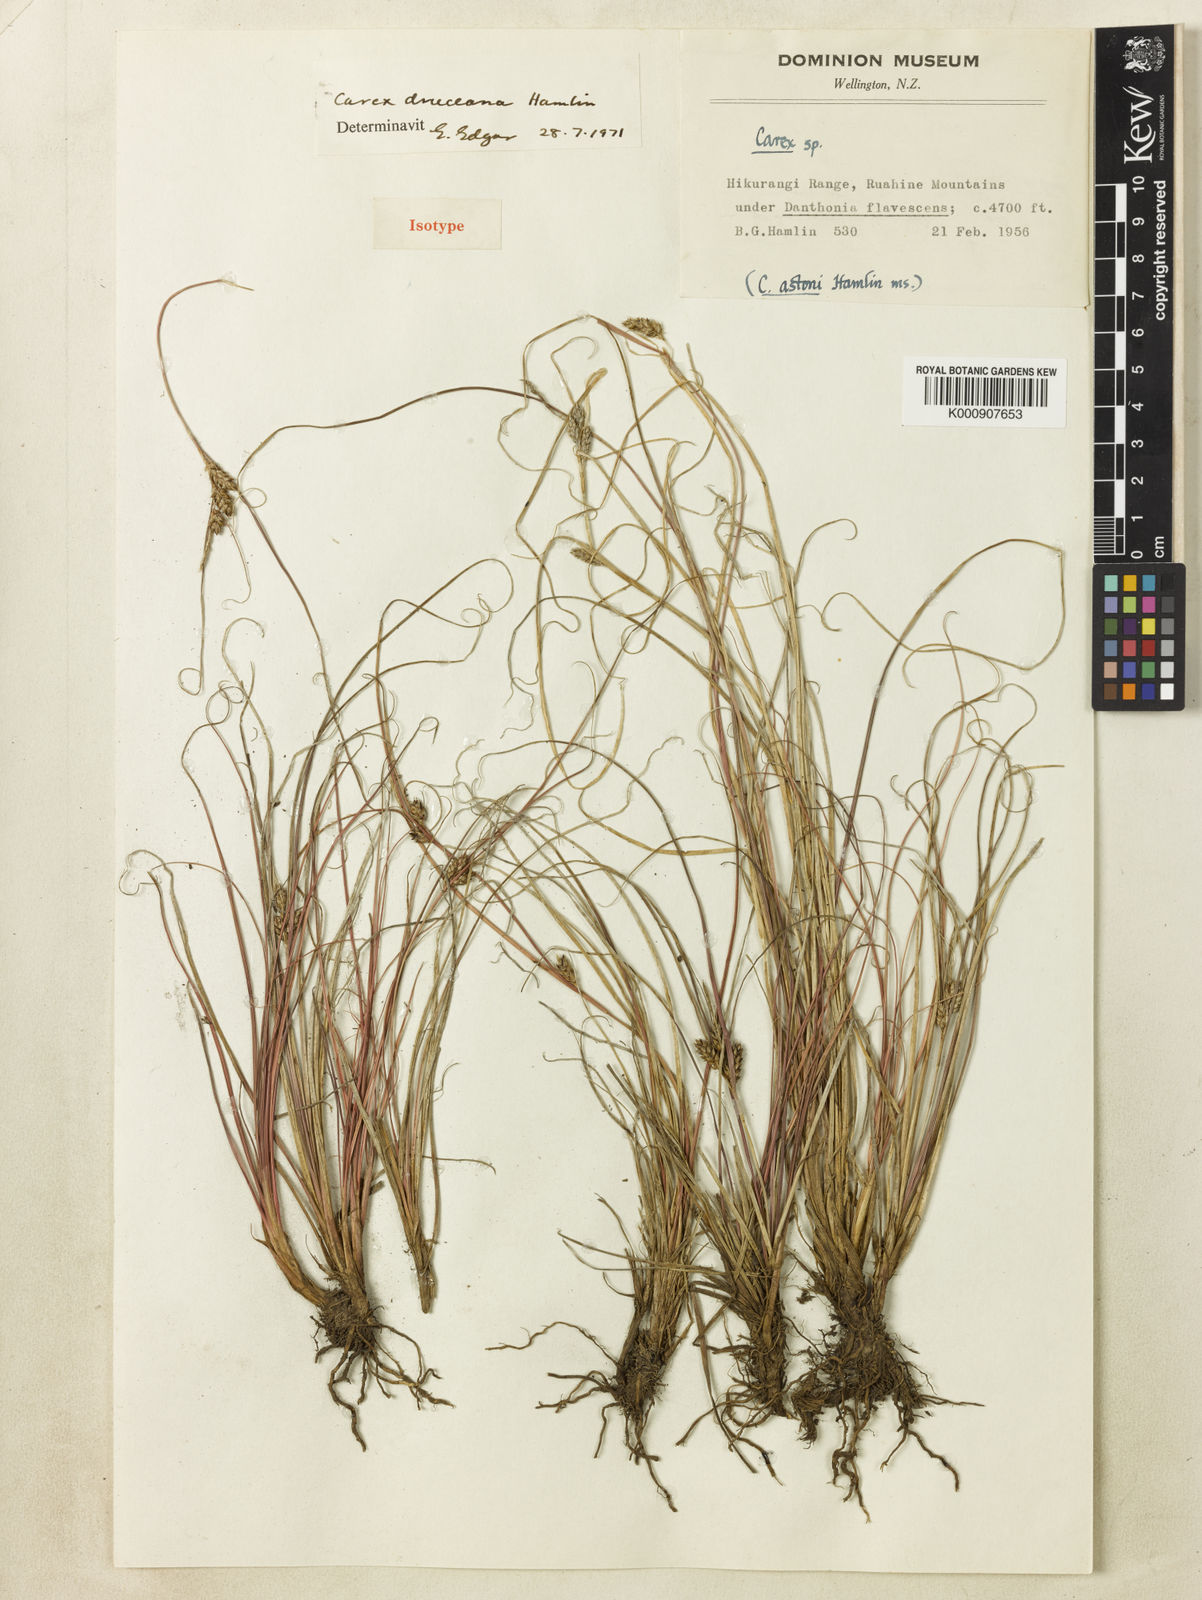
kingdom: Plantae
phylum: Tracheophyta
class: Liliopsida
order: Poales
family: Cyperaceae
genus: Carex
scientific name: Carex dolomitica
